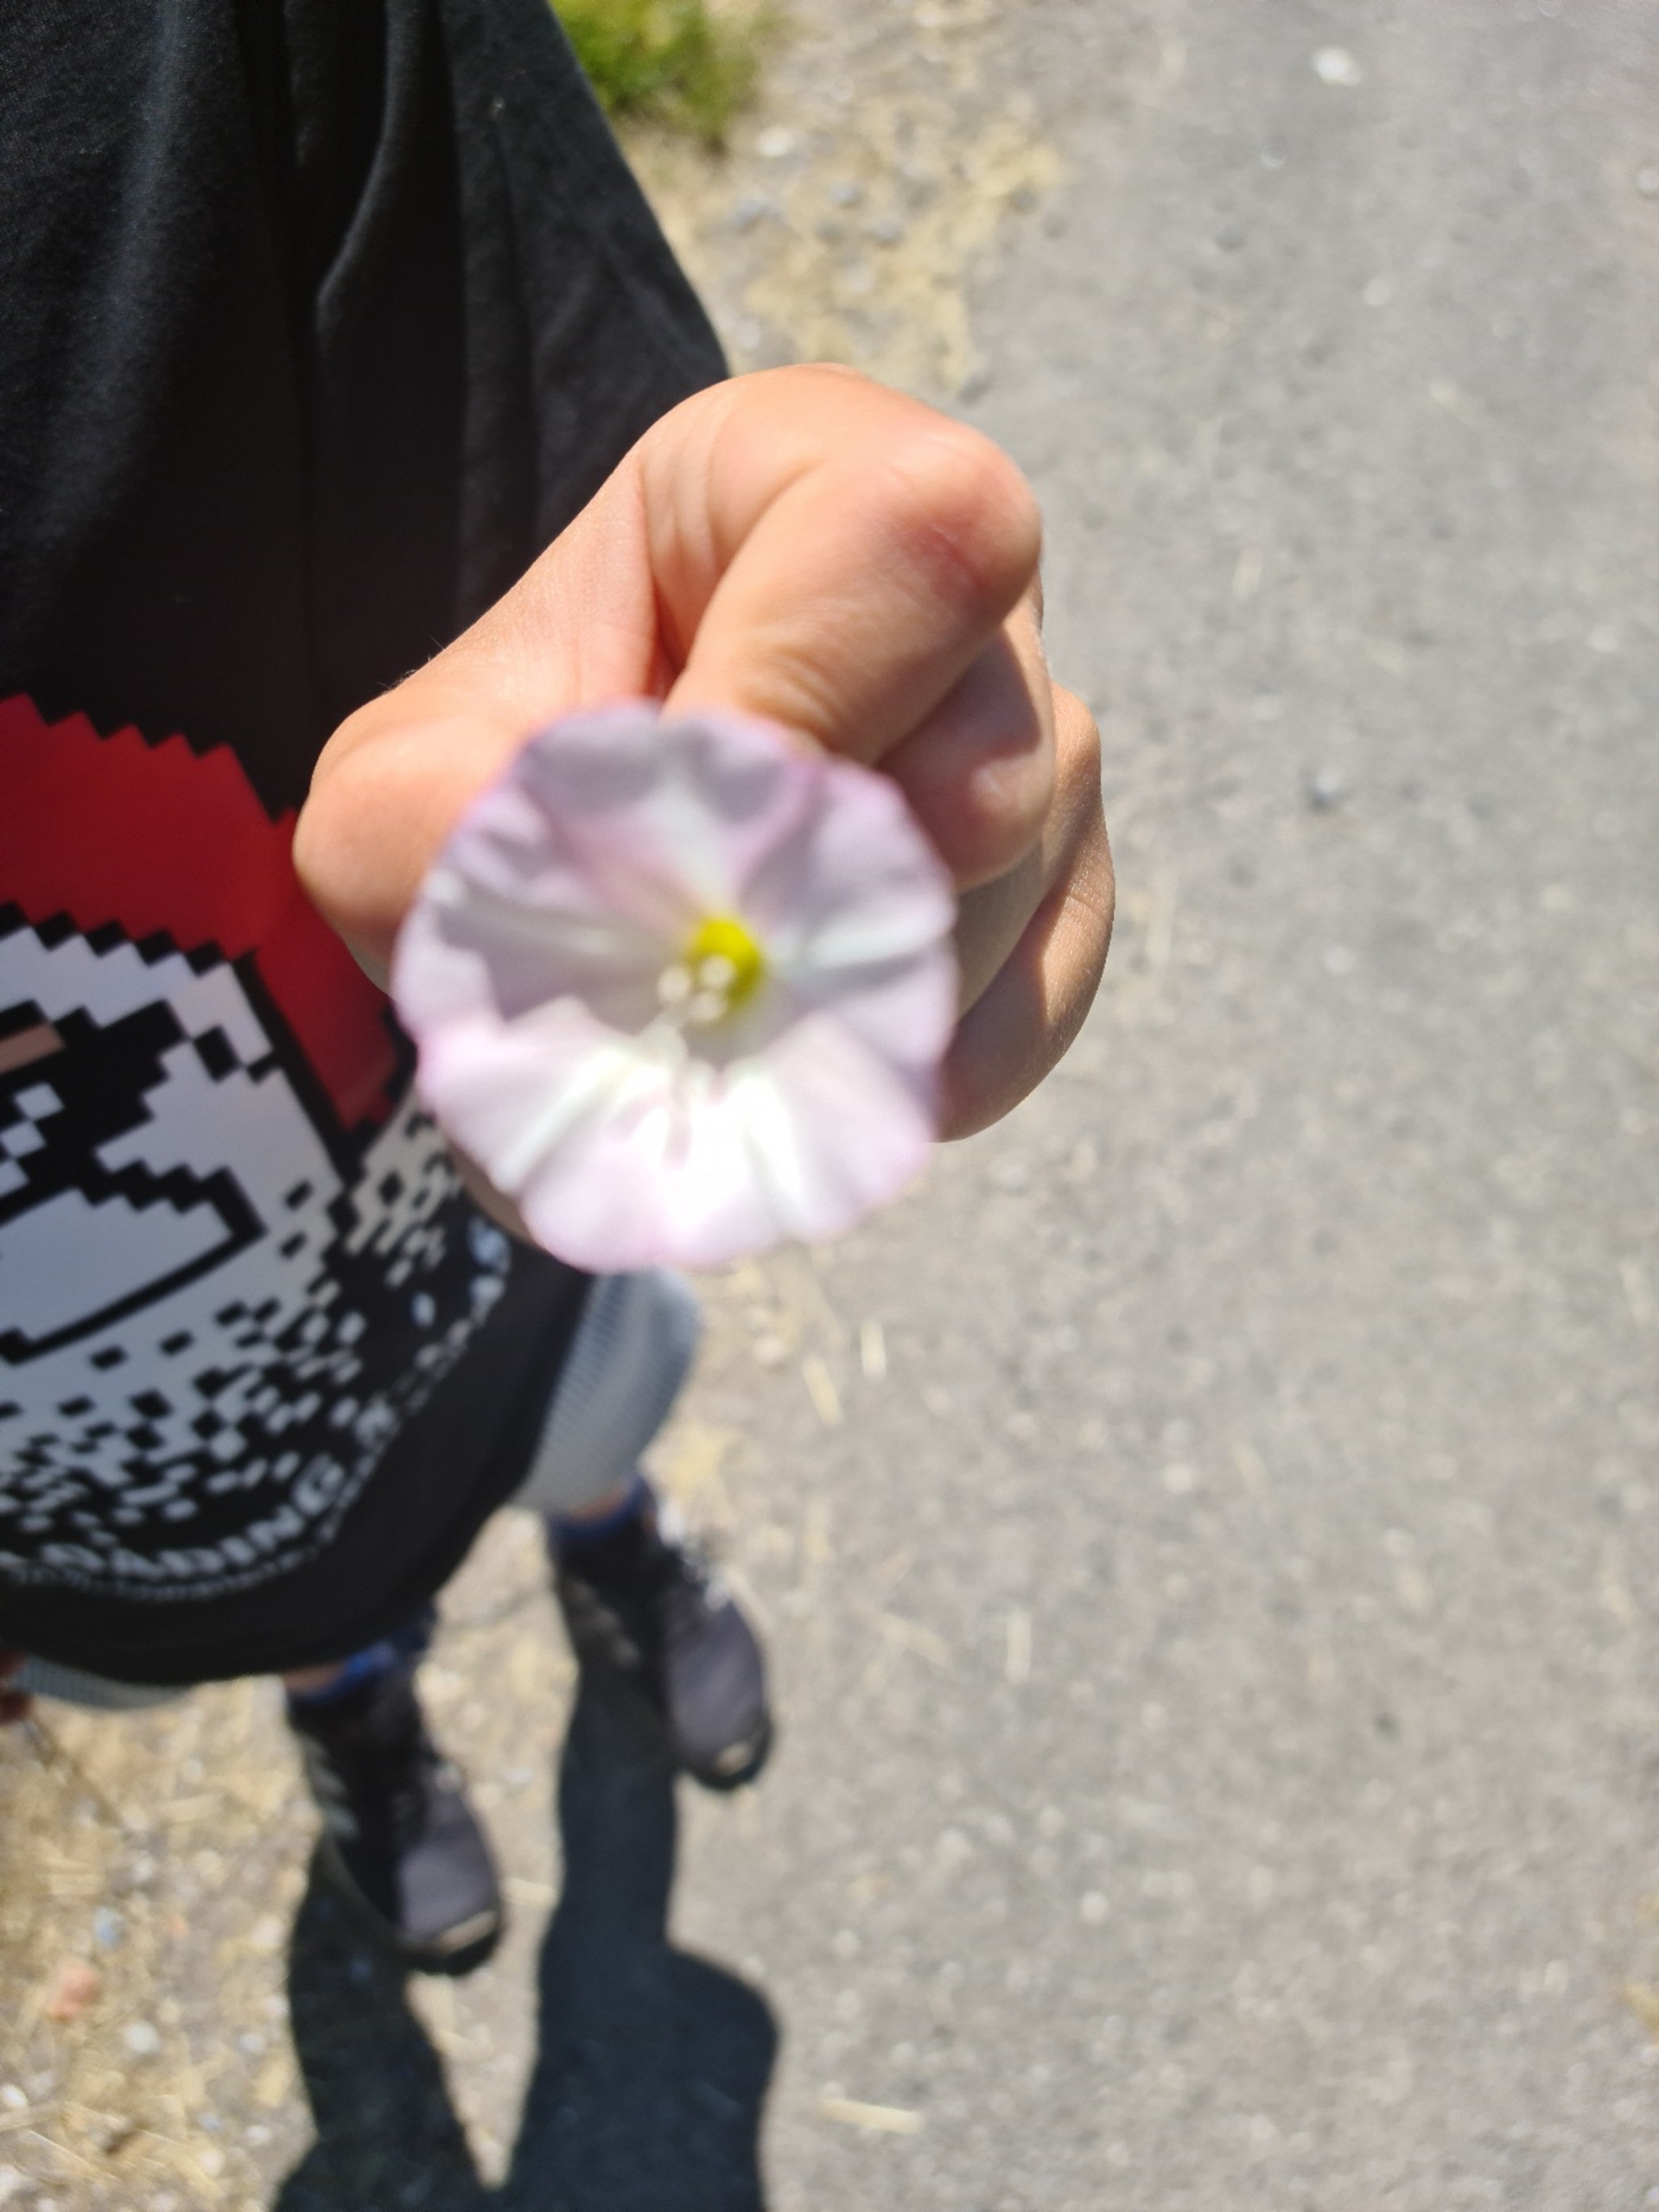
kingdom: Plantae
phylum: Tracheophyta
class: Magnoliopsida
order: Solanales
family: Convolvulaceae
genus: Calystegia
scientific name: Calystegia
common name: Snerle (Calystegia-slægten)
